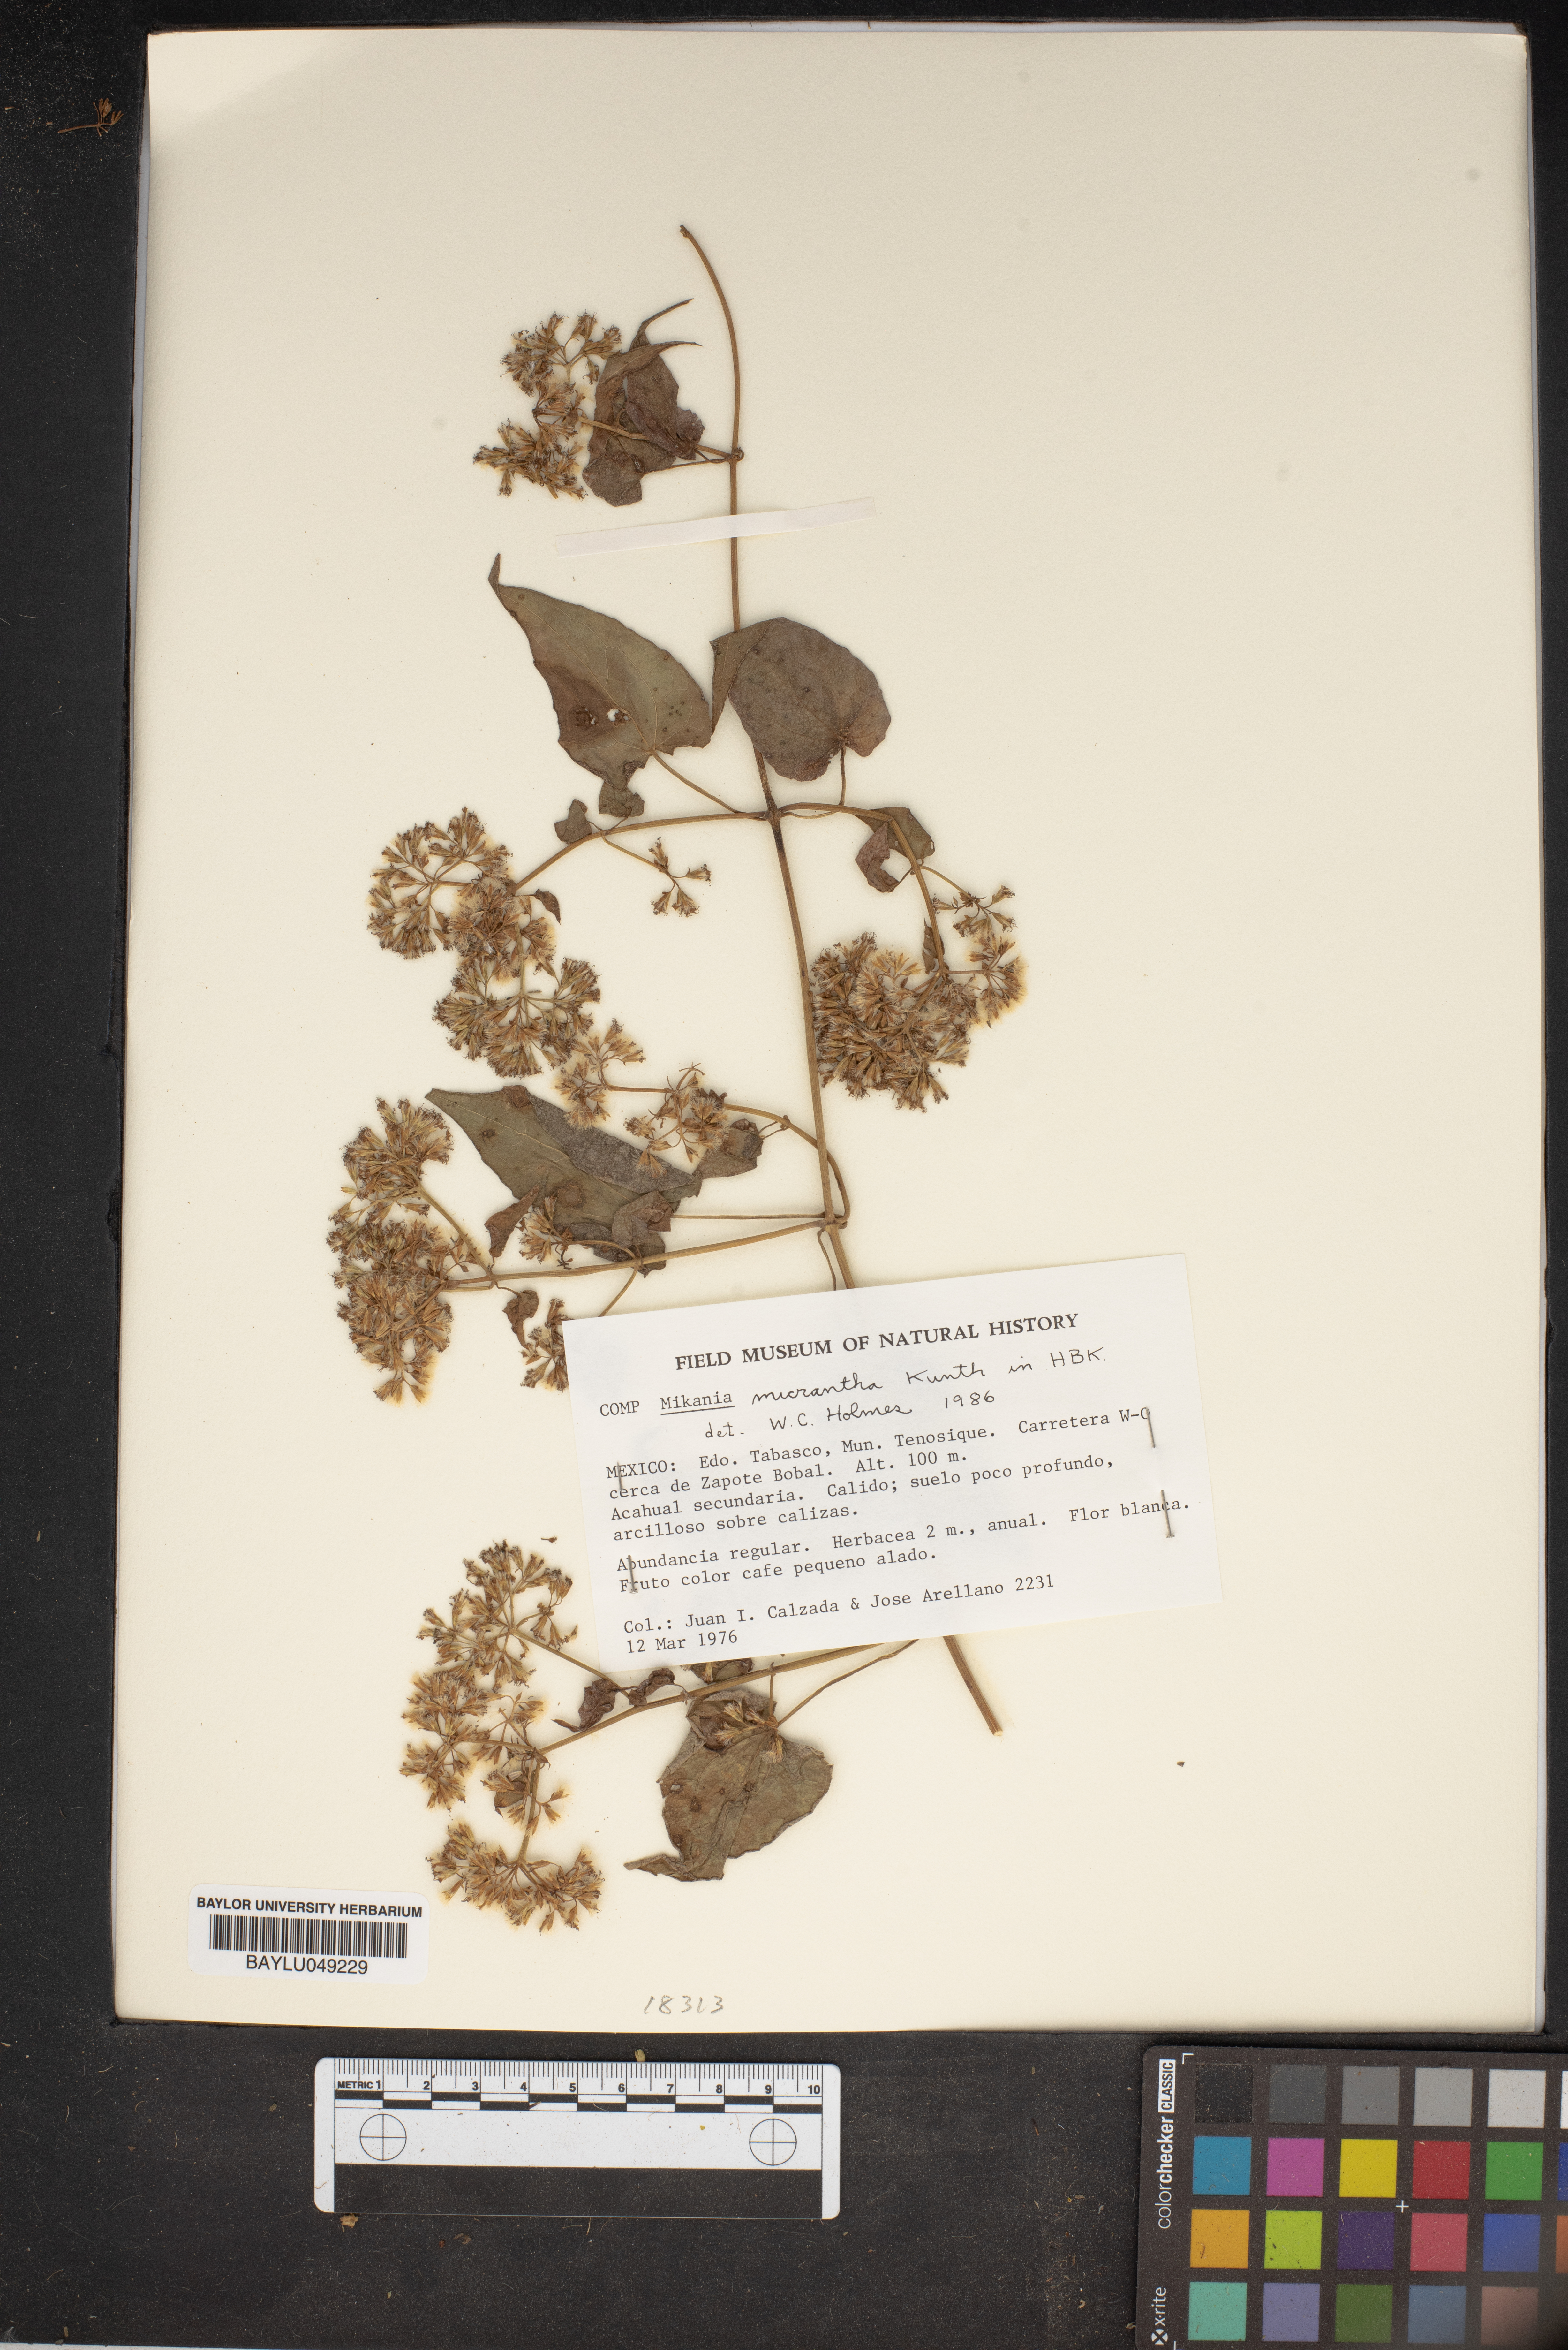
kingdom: Plantae
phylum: Tracheophyta
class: Magnoliopsida
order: Asterales
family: Asteraceae
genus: Mikania
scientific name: Mikania micrantha
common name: Mile-a-minute
